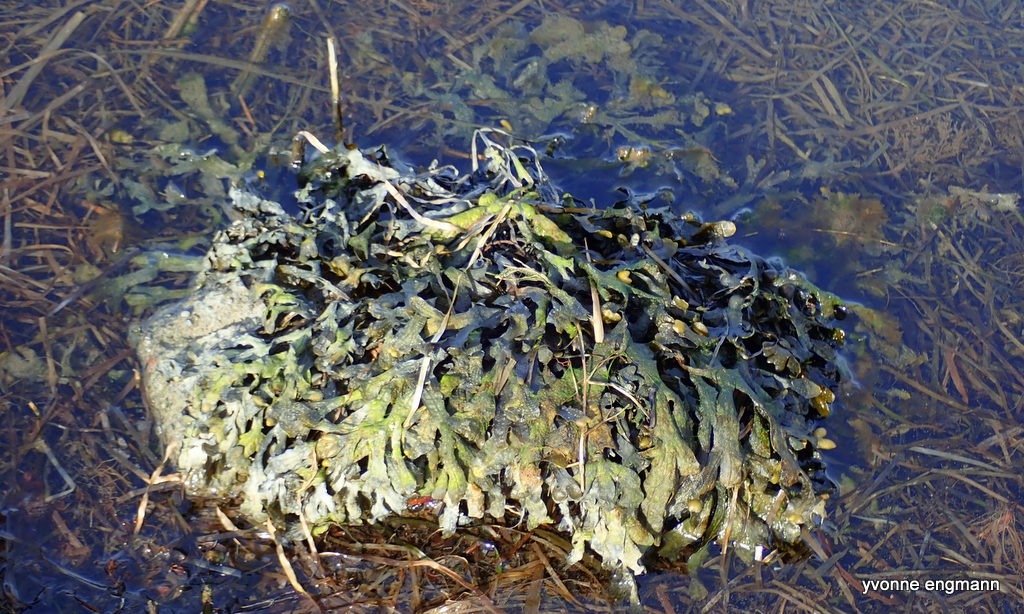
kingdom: Chromista
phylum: Ochrophyta
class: Phaeophyceae
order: Fucales
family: Fucaceae
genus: Fucus
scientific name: Fucus vesiculosus
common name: Blæretang
